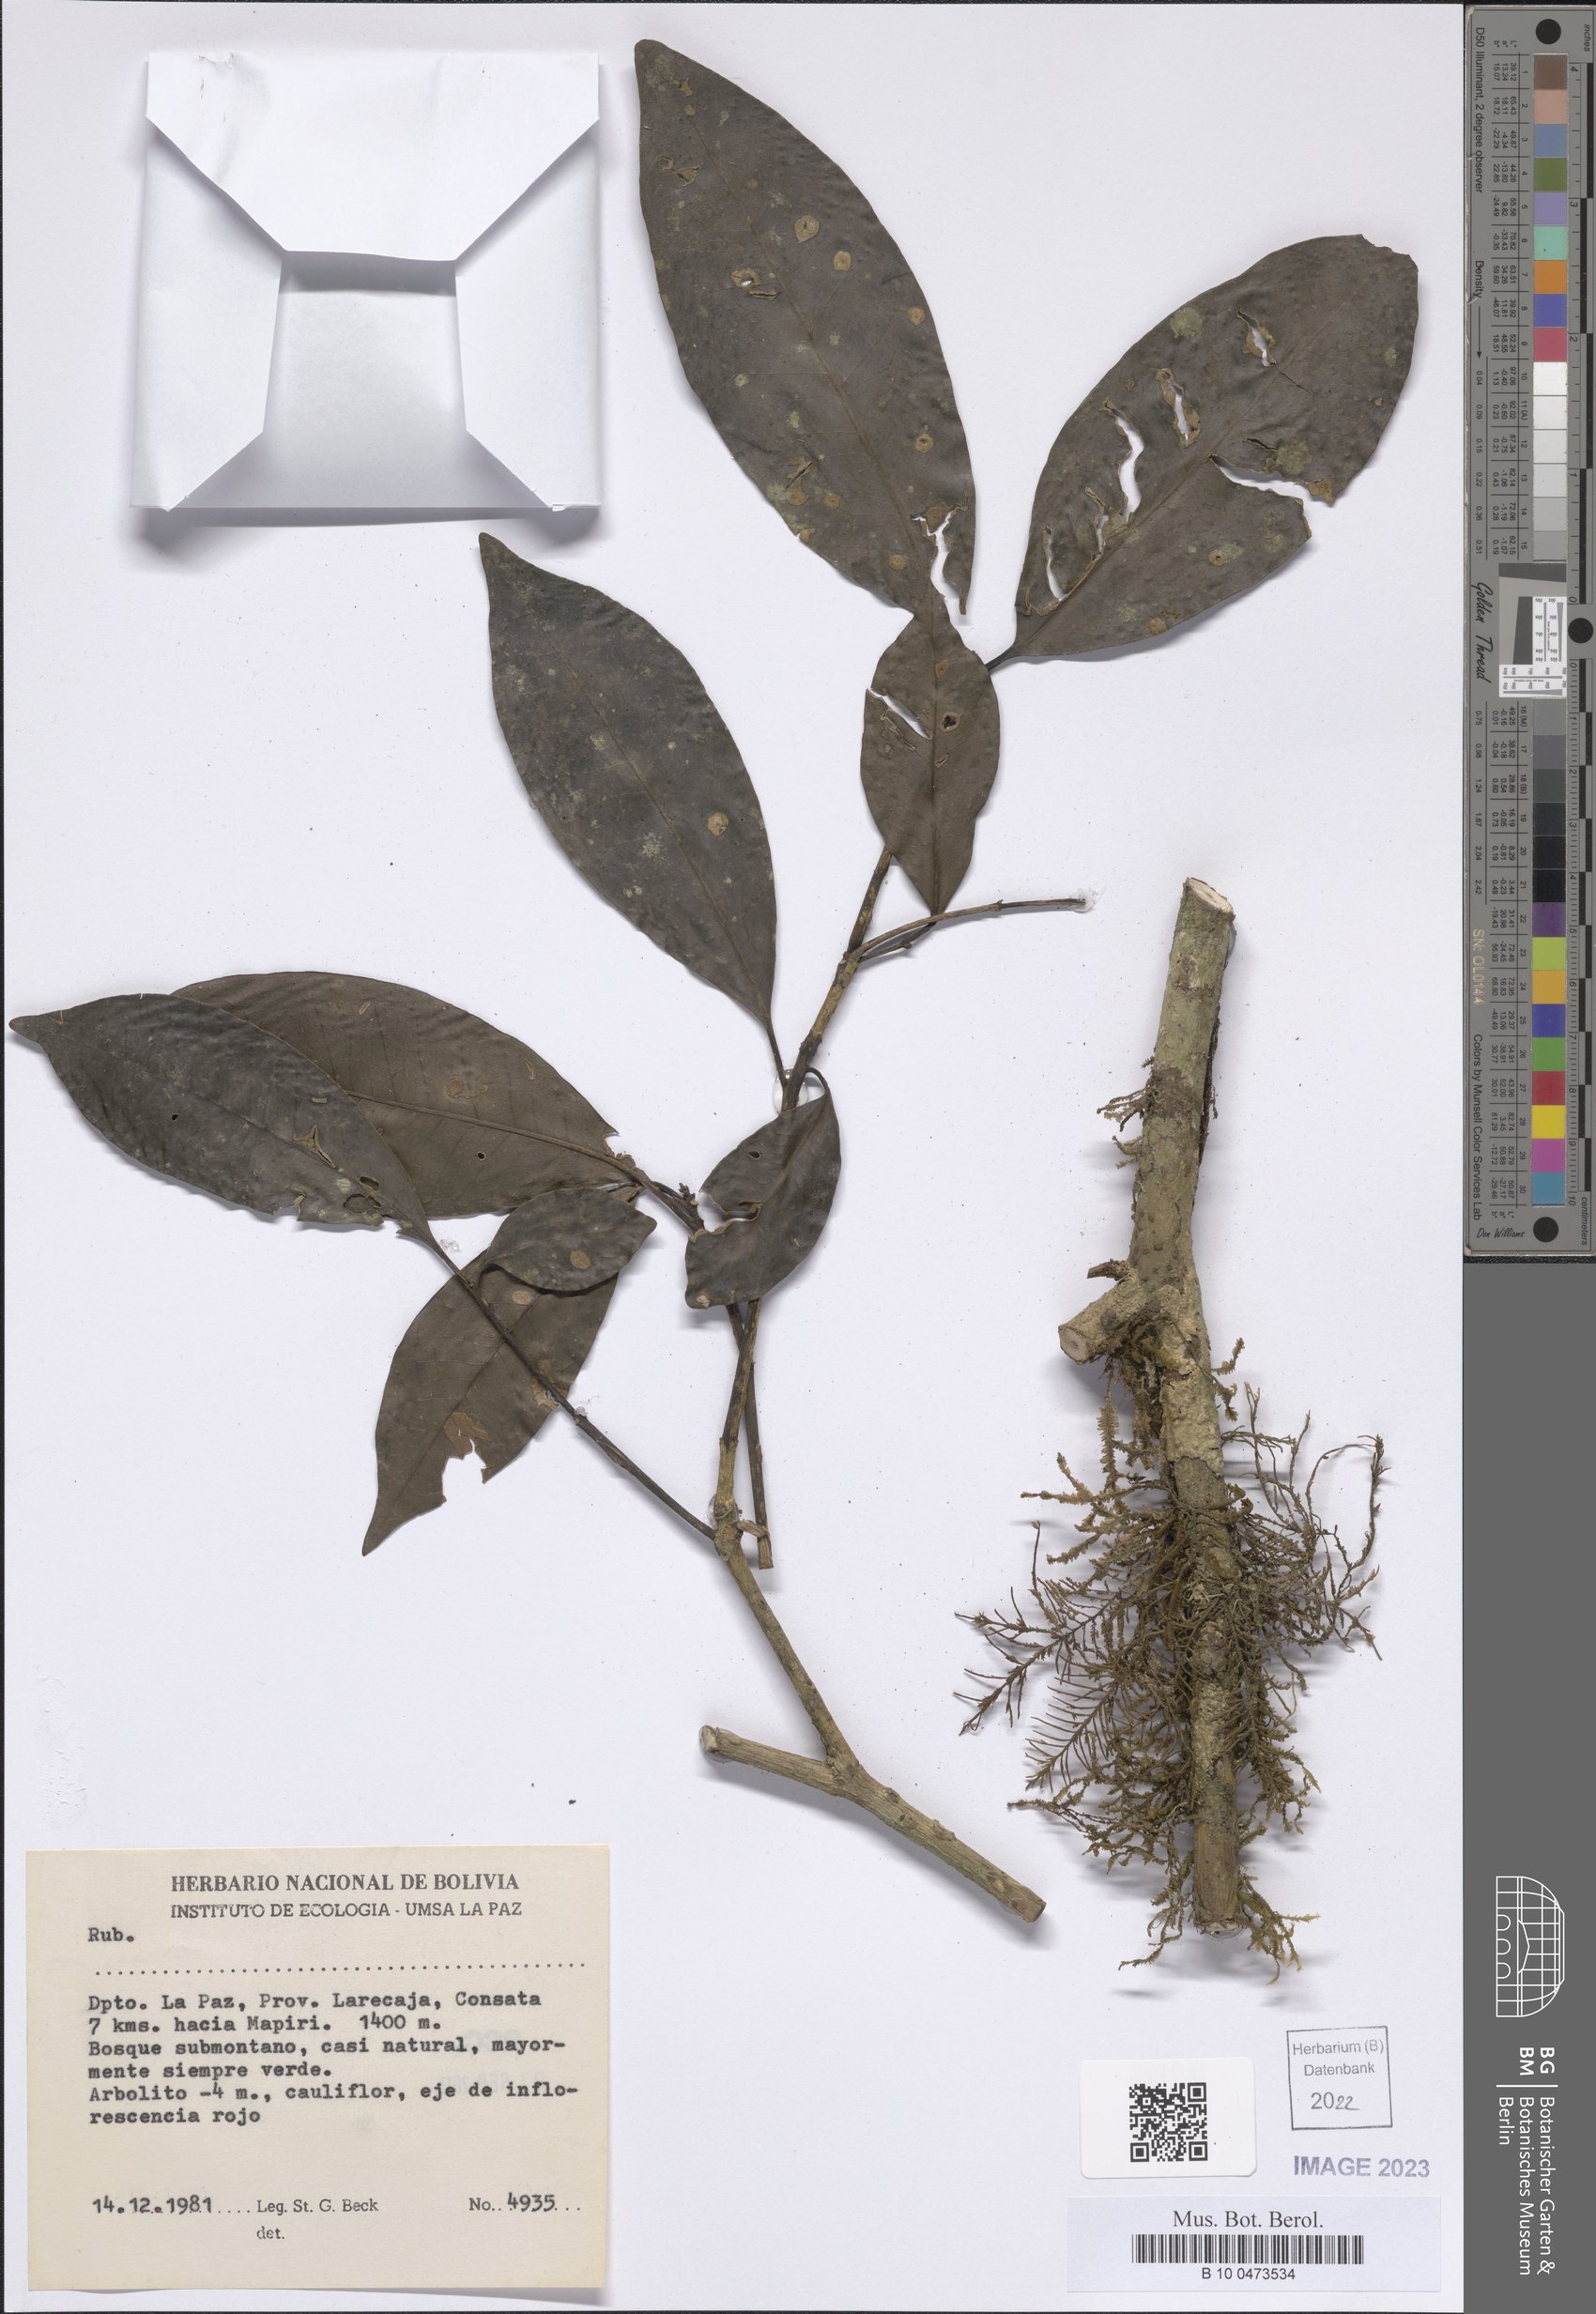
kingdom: Plantae
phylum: Tracheophyta
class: Magnoliopsida
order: Gentianales
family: Rubiaceae
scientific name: Rubiaceae
